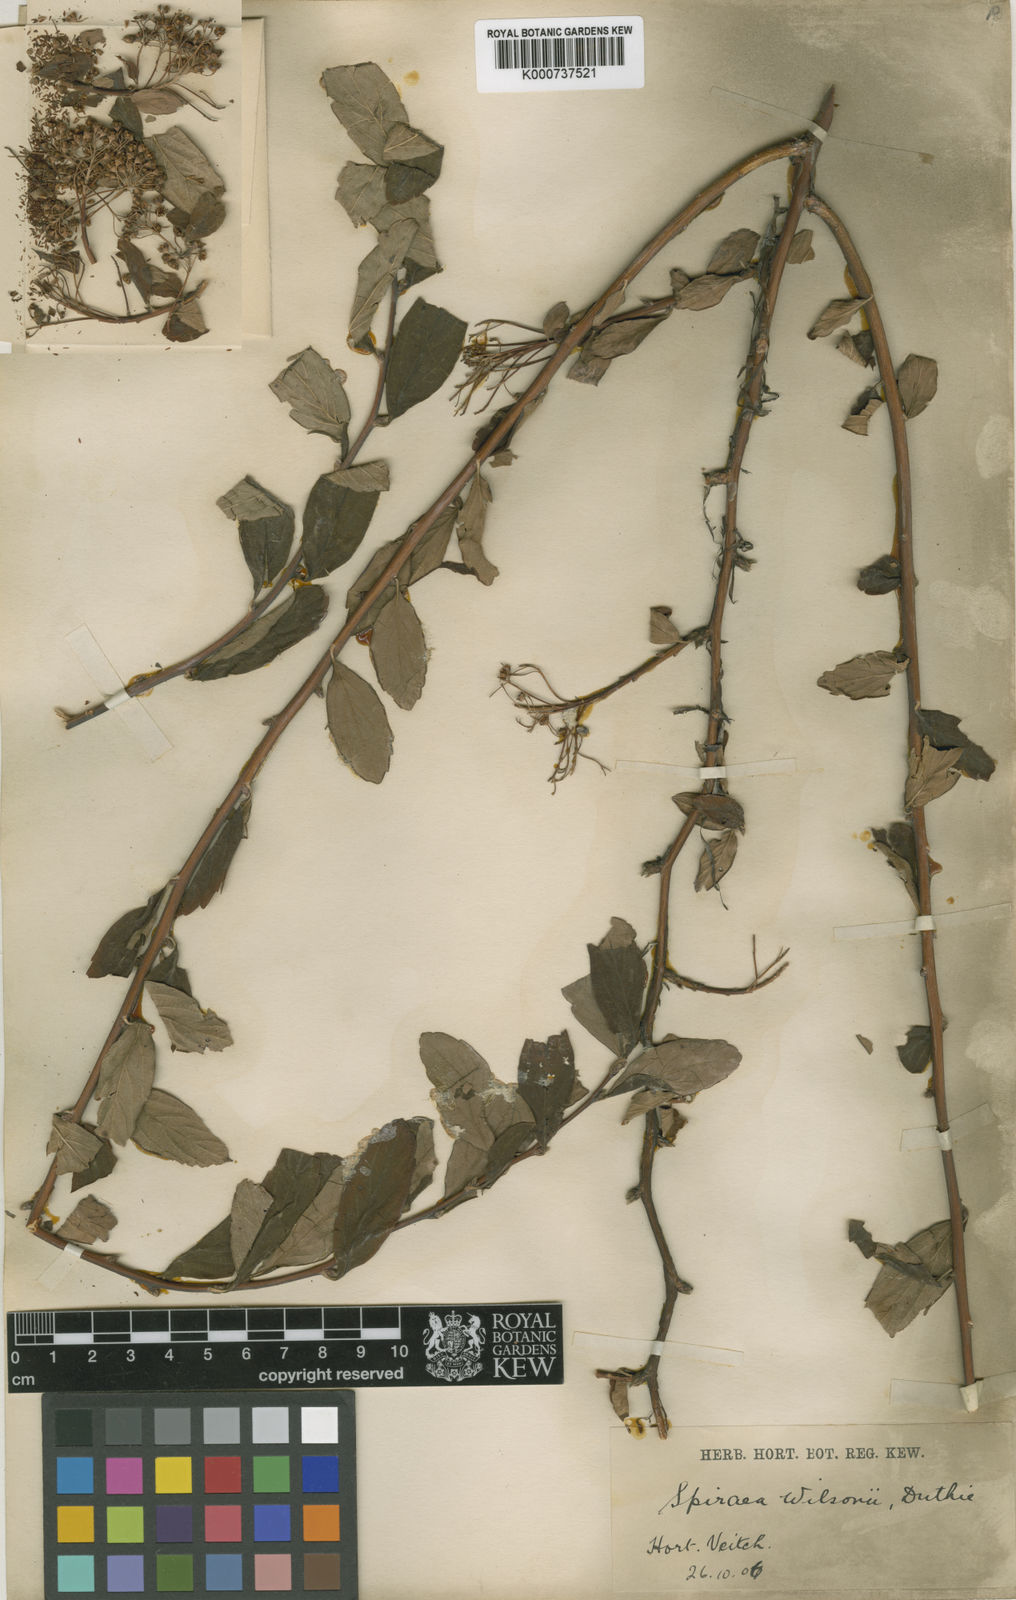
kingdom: Plantae
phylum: Tracheophyta
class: Magnoliopsida
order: Rosales
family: Rosaceae
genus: Spiraea
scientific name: Spiraea
